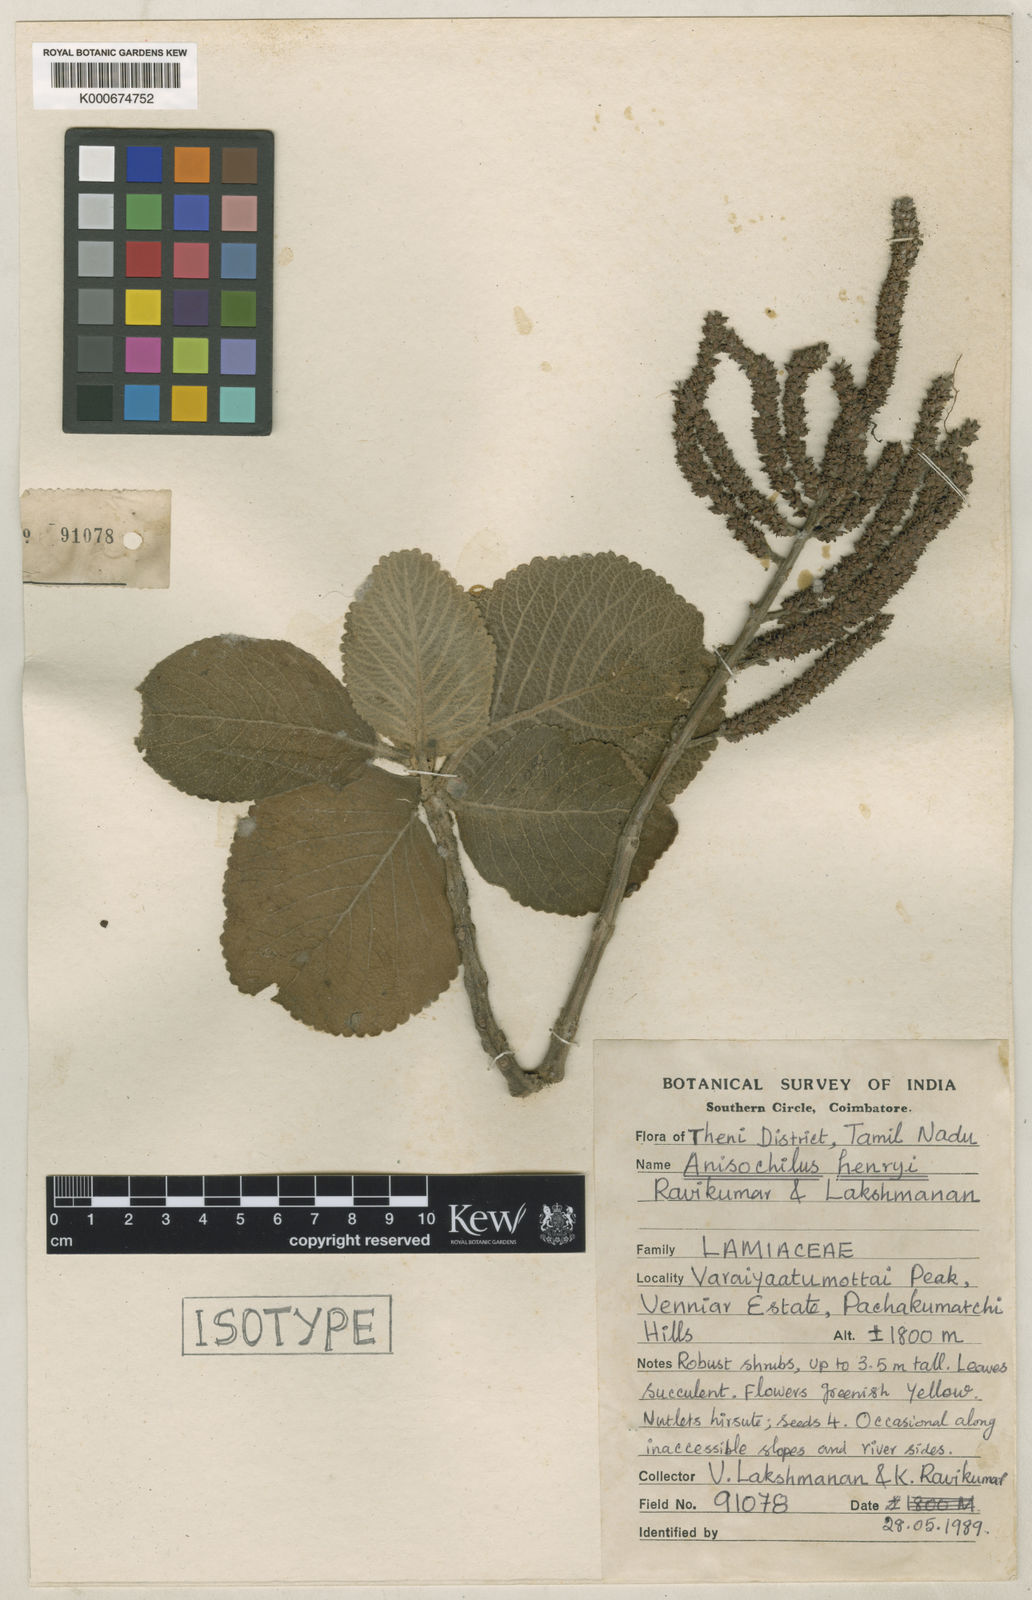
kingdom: Plantae
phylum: Tracheophyta
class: Magnoliopsida
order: Lamiales
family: Lamiaceae
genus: Coleus
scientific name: Coleus robustus
